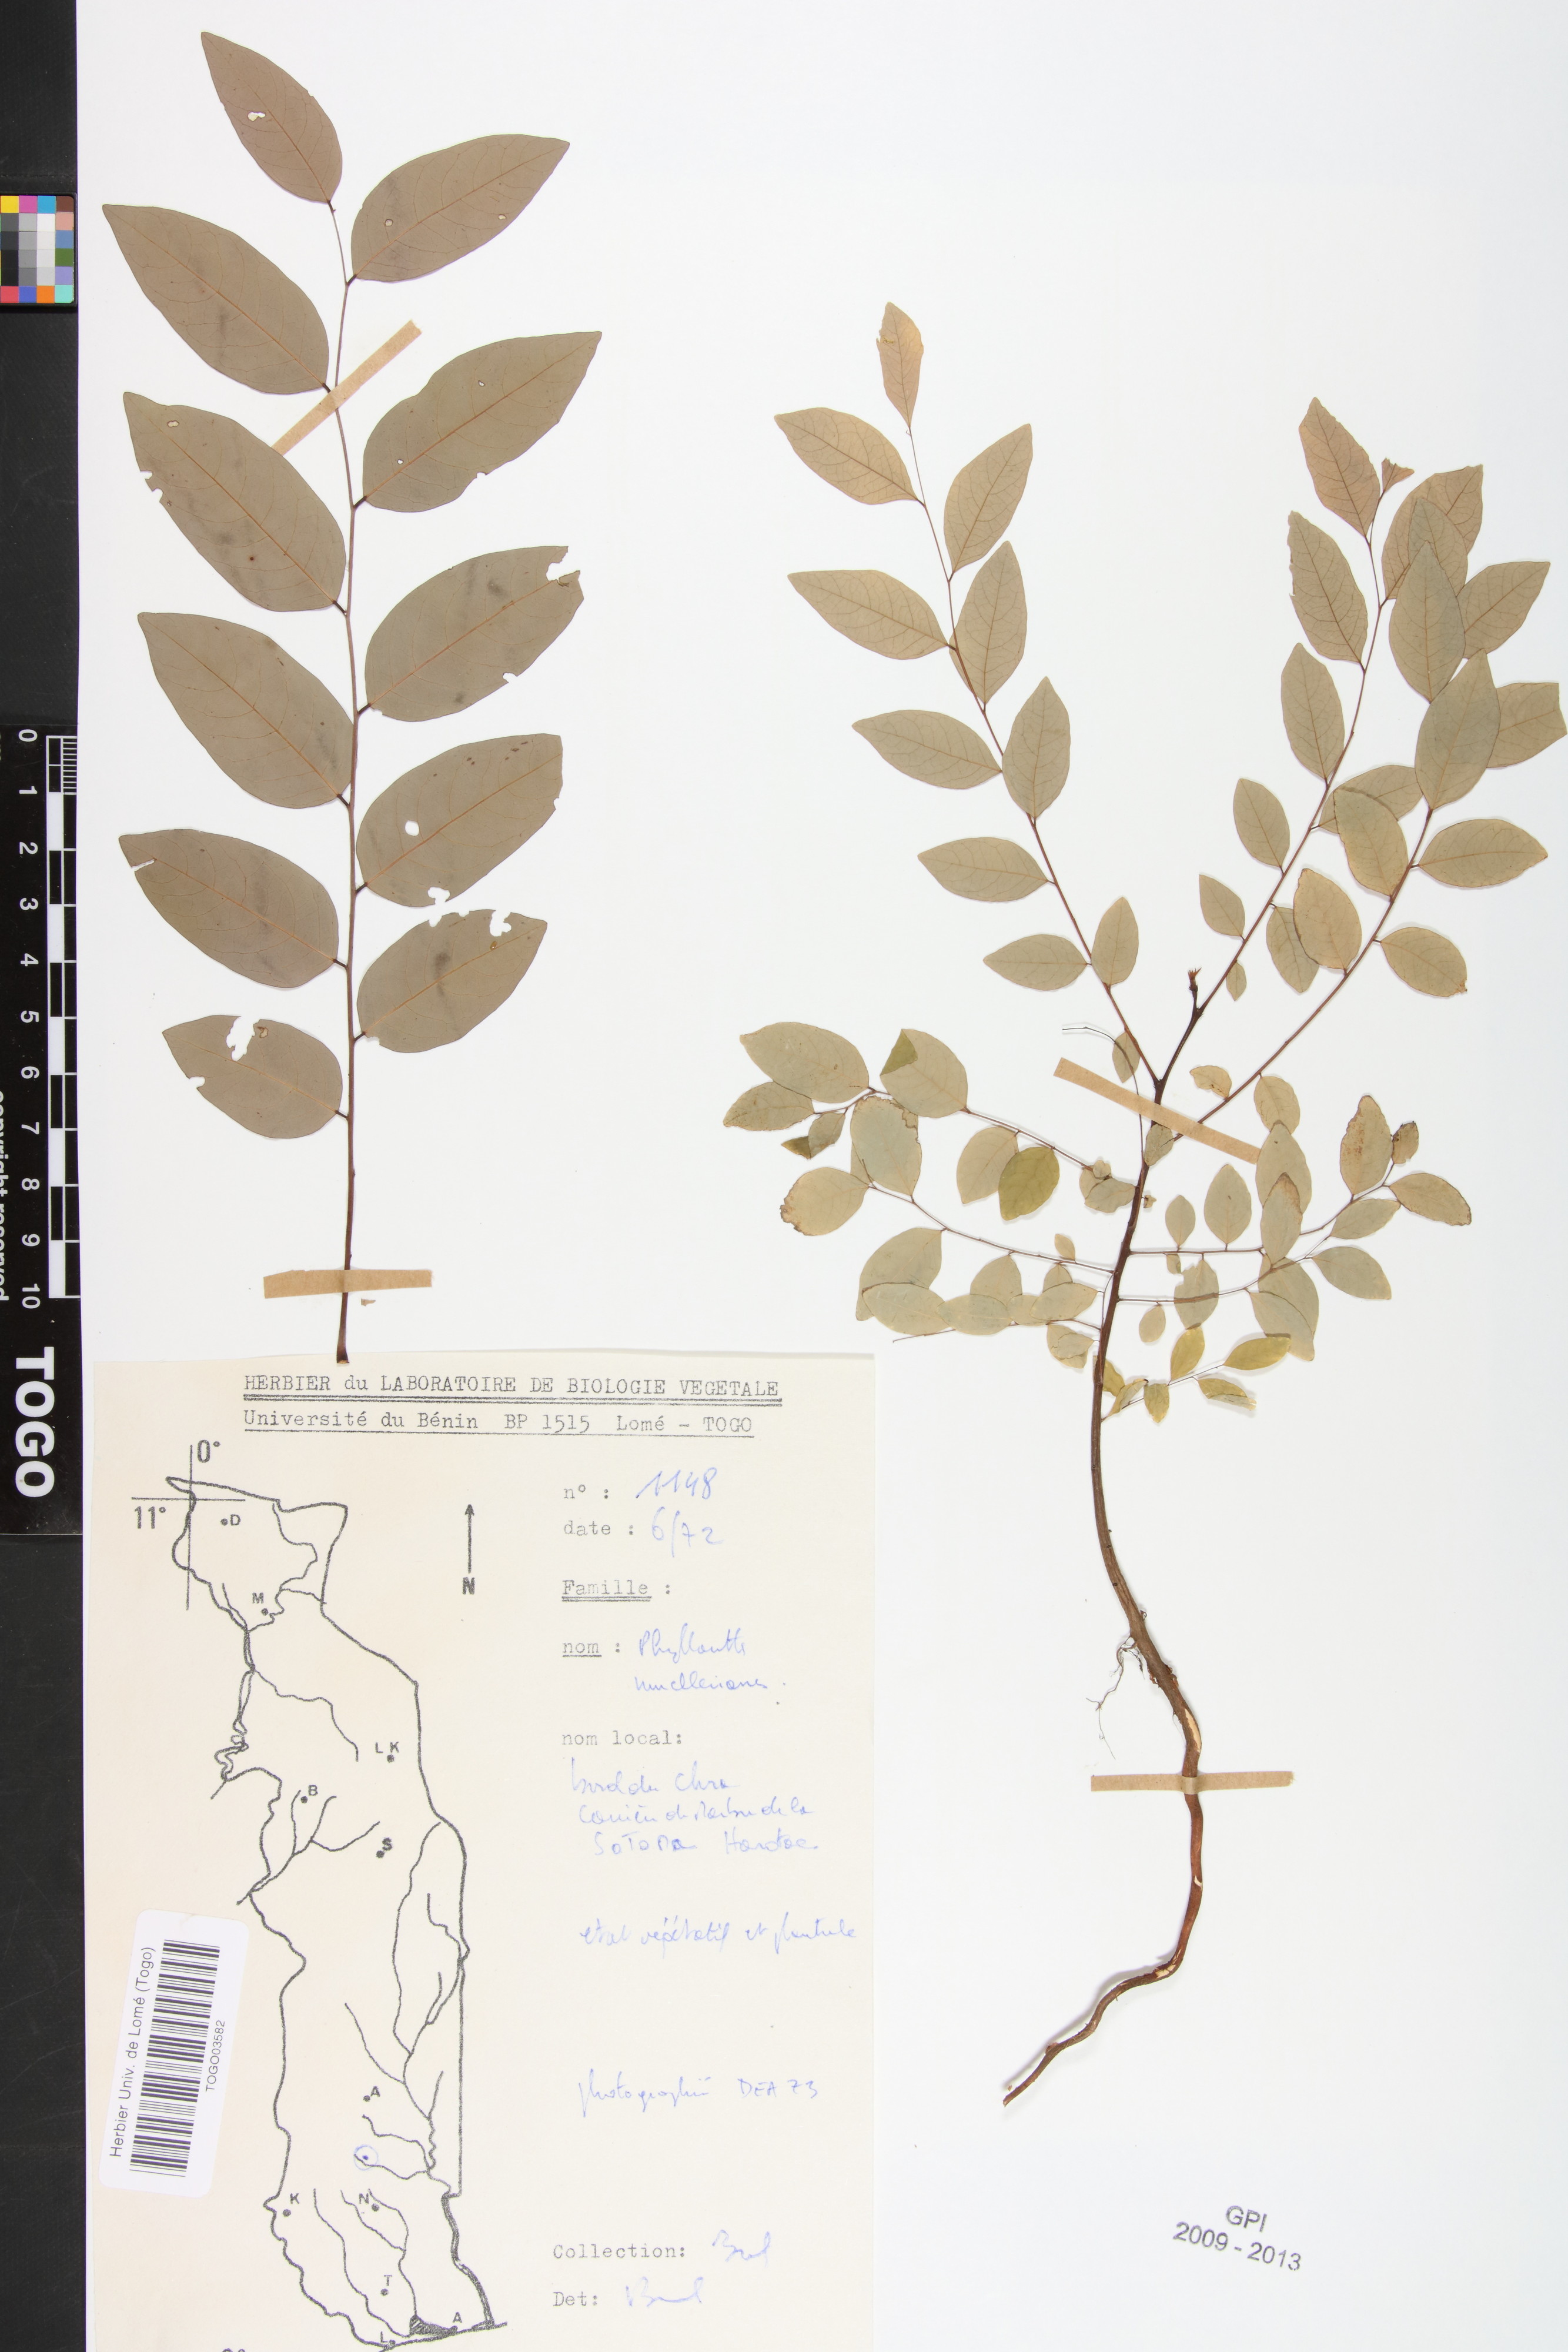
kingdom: Plantae
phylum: Tracheophyta
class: Magnoliopsida
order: Malpighiales
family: Phyllanthaceae
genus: Phyllanthus
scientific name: Phyllanthus muellerianus
